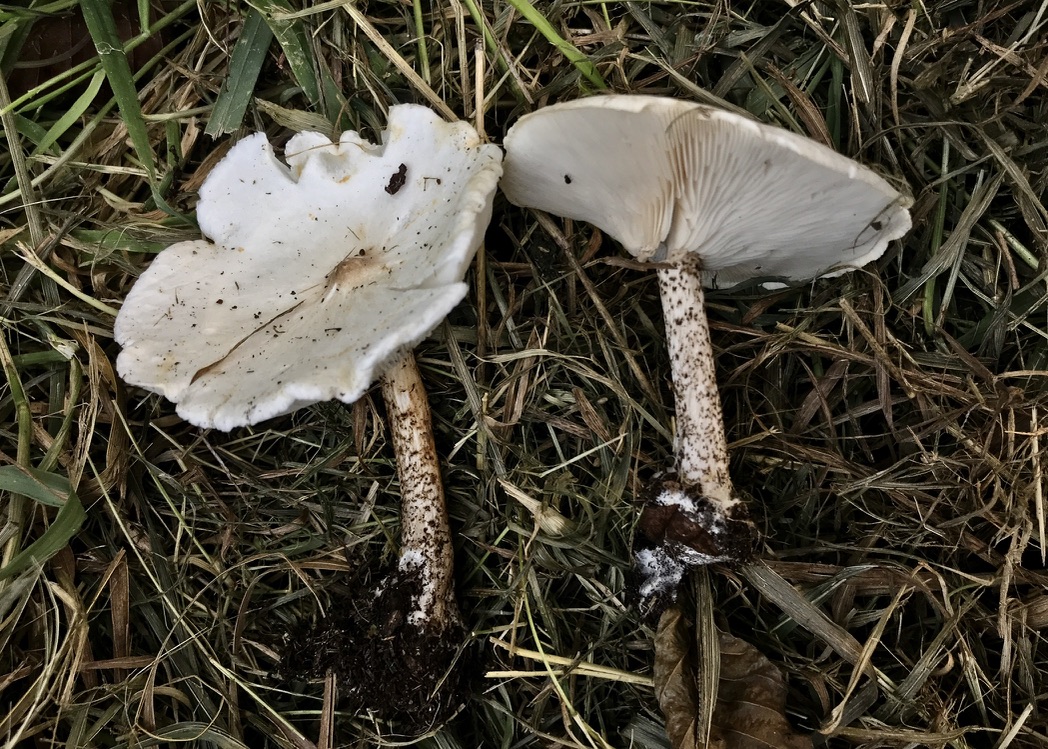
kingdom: Fungi
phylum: Basidiomycota
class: Agaricomycetes
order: Agaricales
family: Tricholomataceae
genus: Melanoleuca
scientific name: Melanoleuca verrucipes
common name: rufodet munkehat
